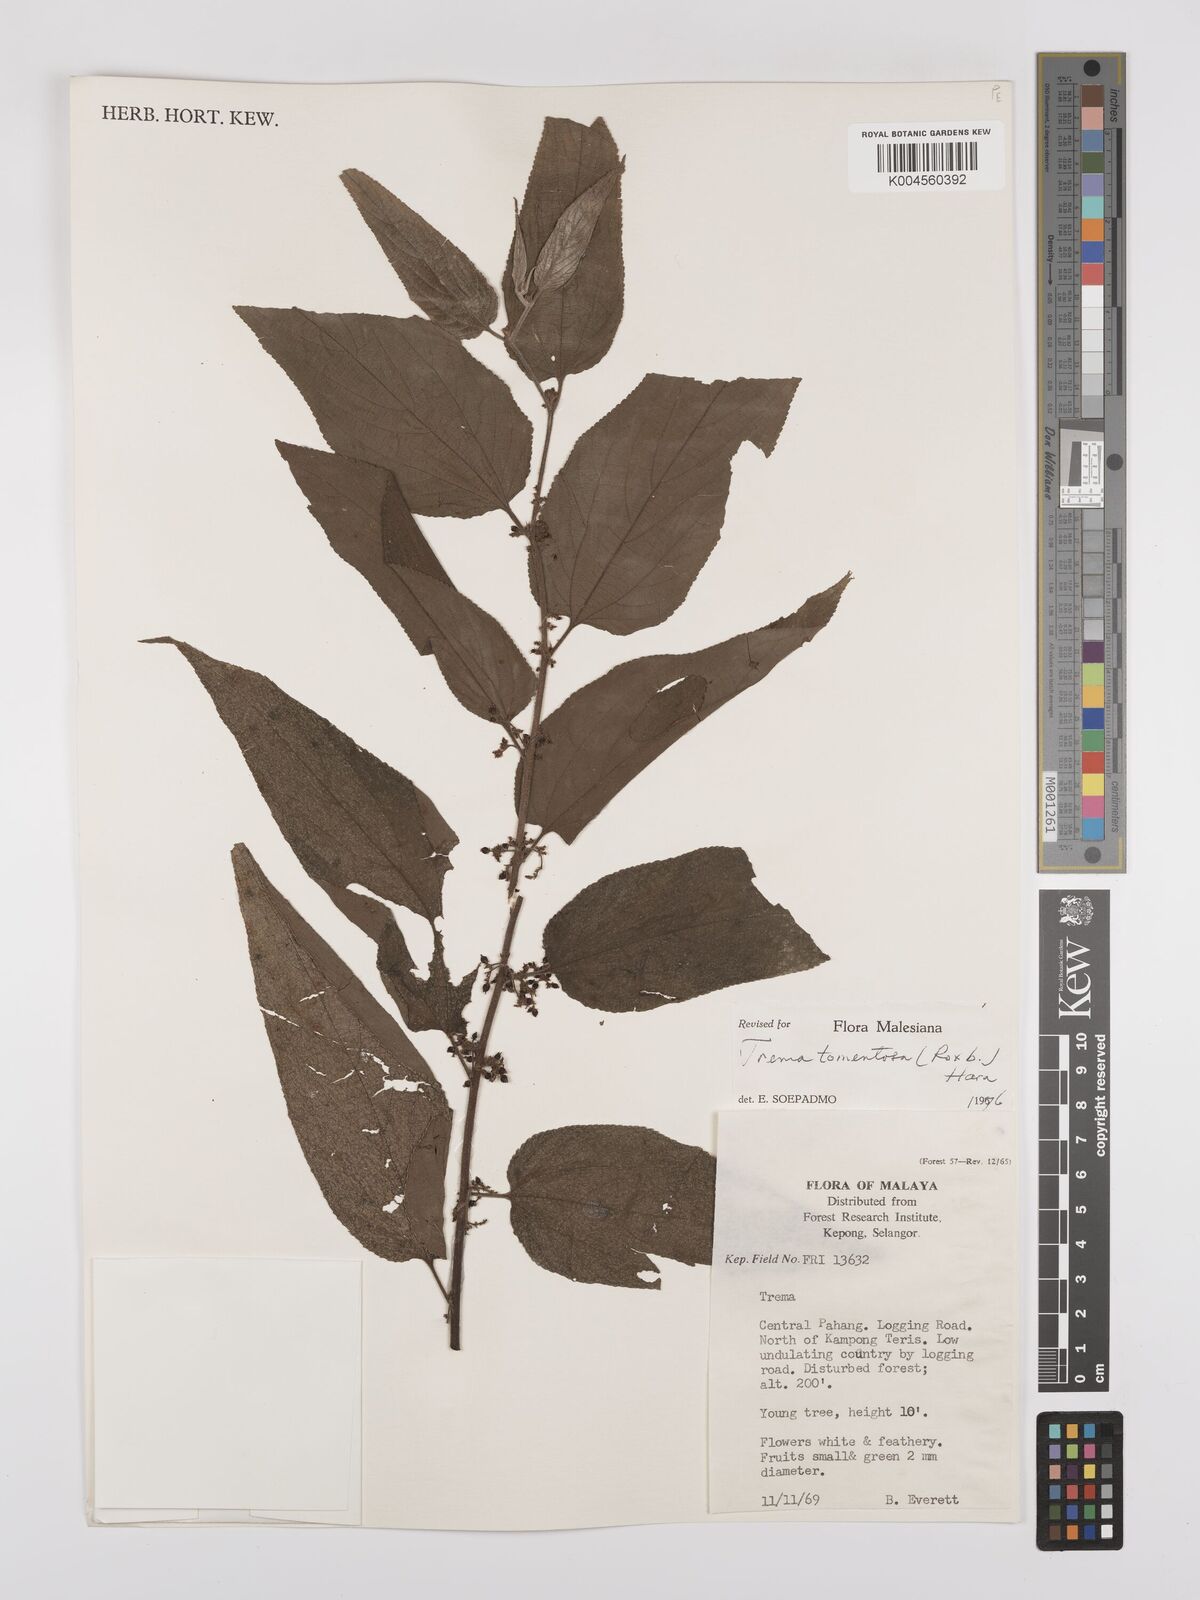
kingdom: Plantae
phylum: Tracheophyta
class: Magnoliopsida
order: Rosales
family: Cannabaceae
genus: Trema
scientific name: Trema tomentosum
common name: Peach-leaf-poisonbush
